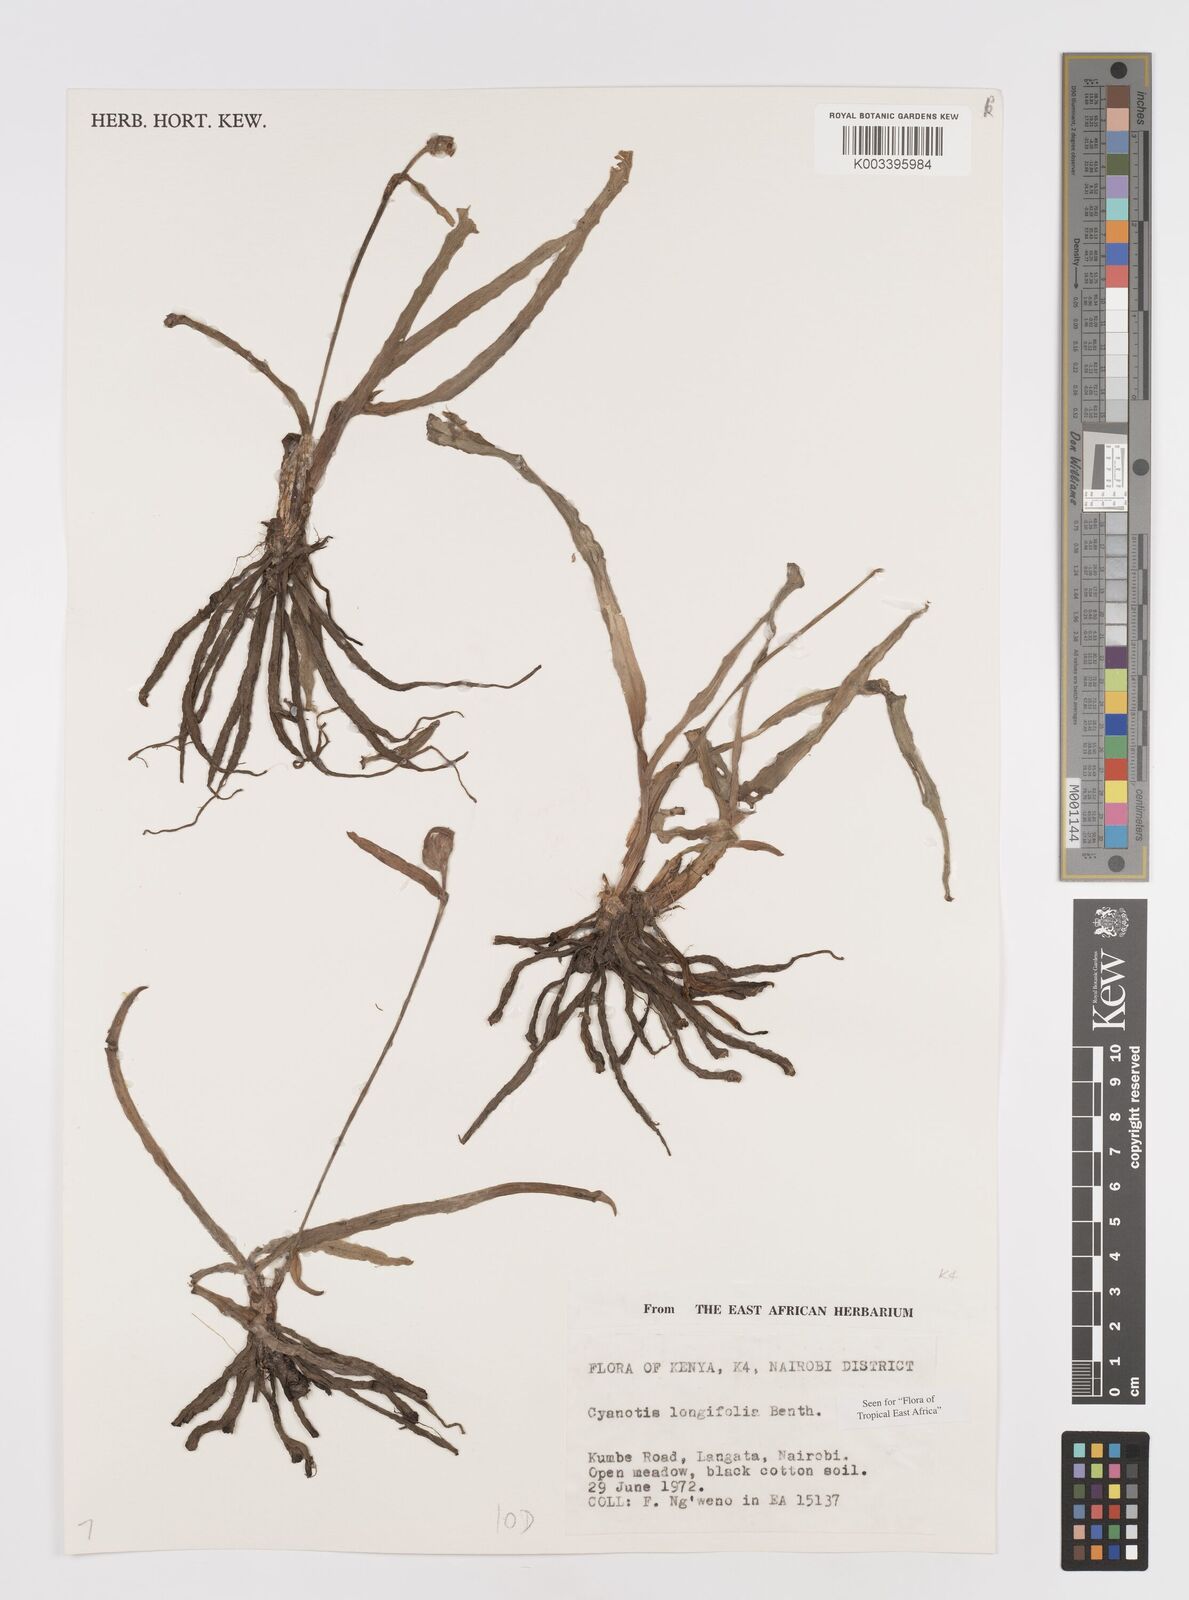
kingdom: Plantae
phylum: Tracheophyta
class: Liliopsida
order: Commelinales
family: Commelinaceae
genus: Cyanotis
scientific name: Cyanotis longifolia
